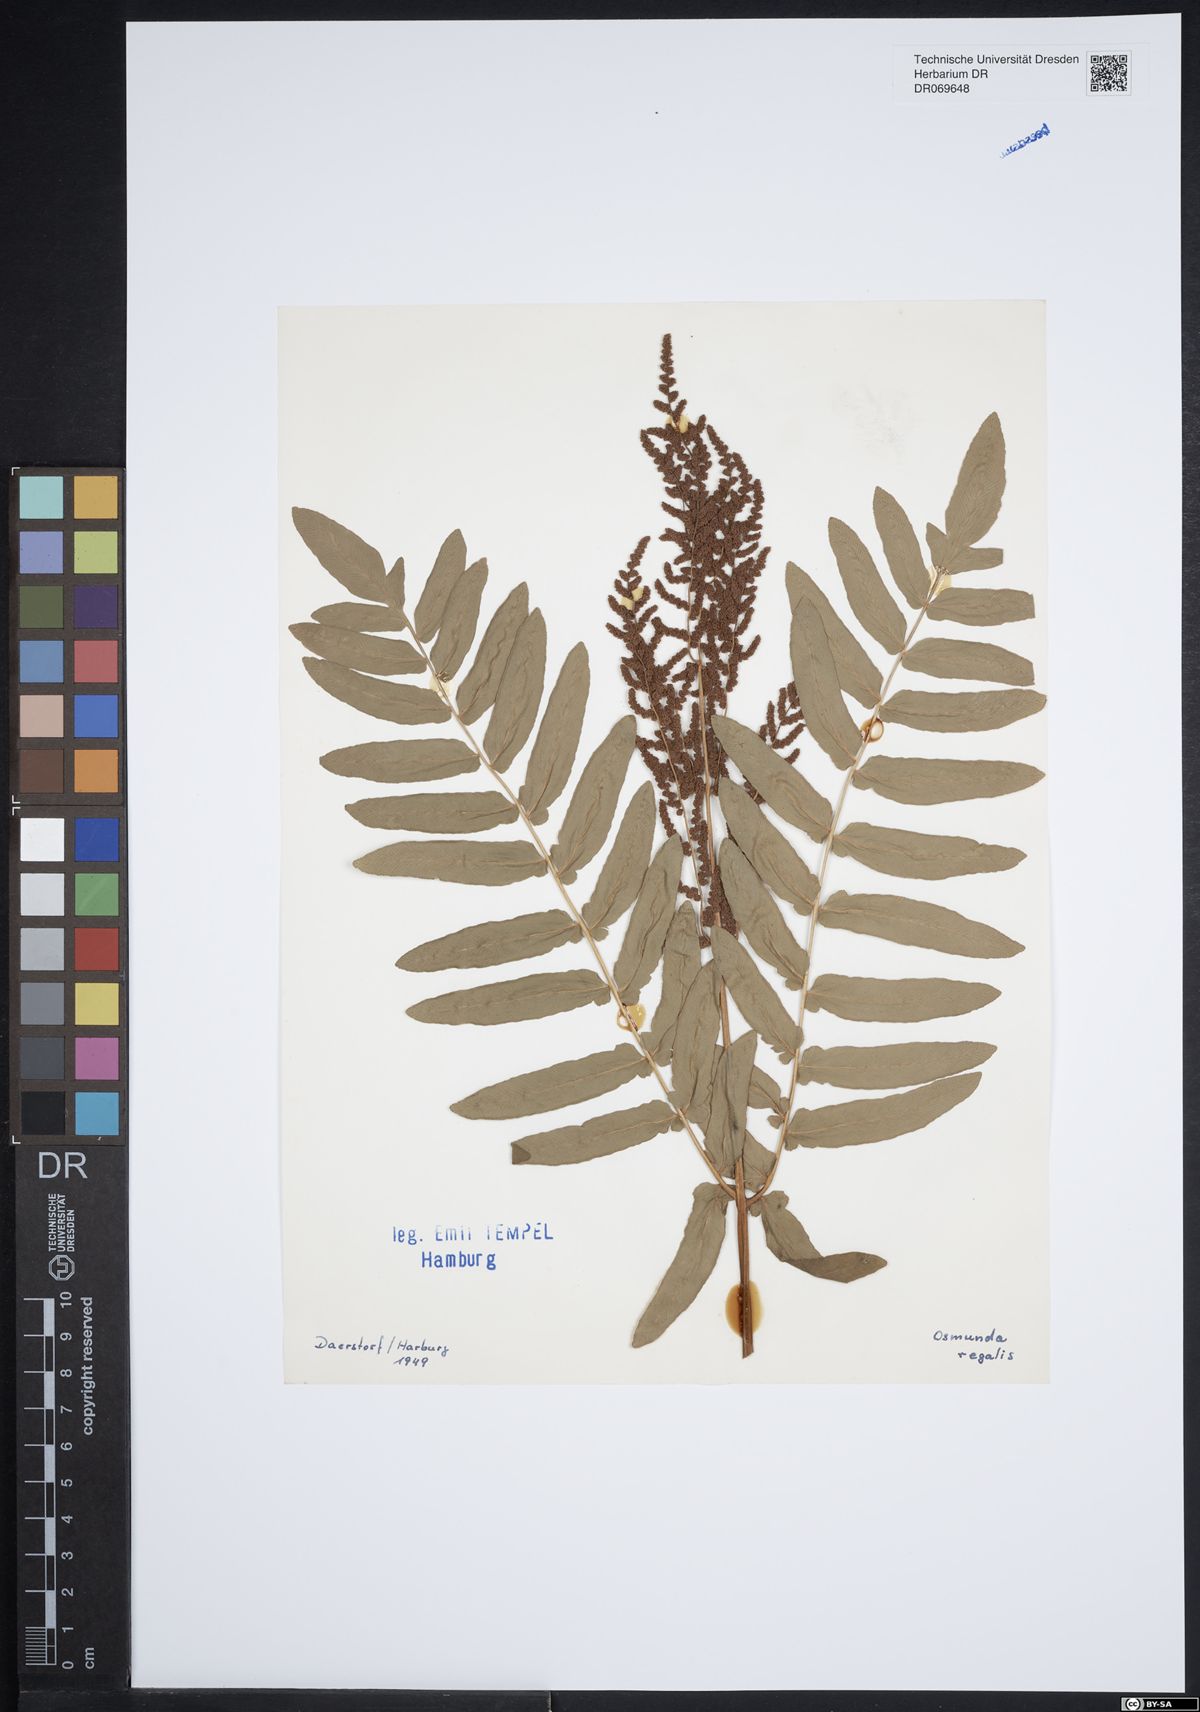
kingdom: Plantae
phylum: Tracheophyta
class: Polypodiopsida
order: Osmundales
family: Osmundaceae
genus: Osmunda
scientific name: Osmunda regalis
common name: Royal fern
